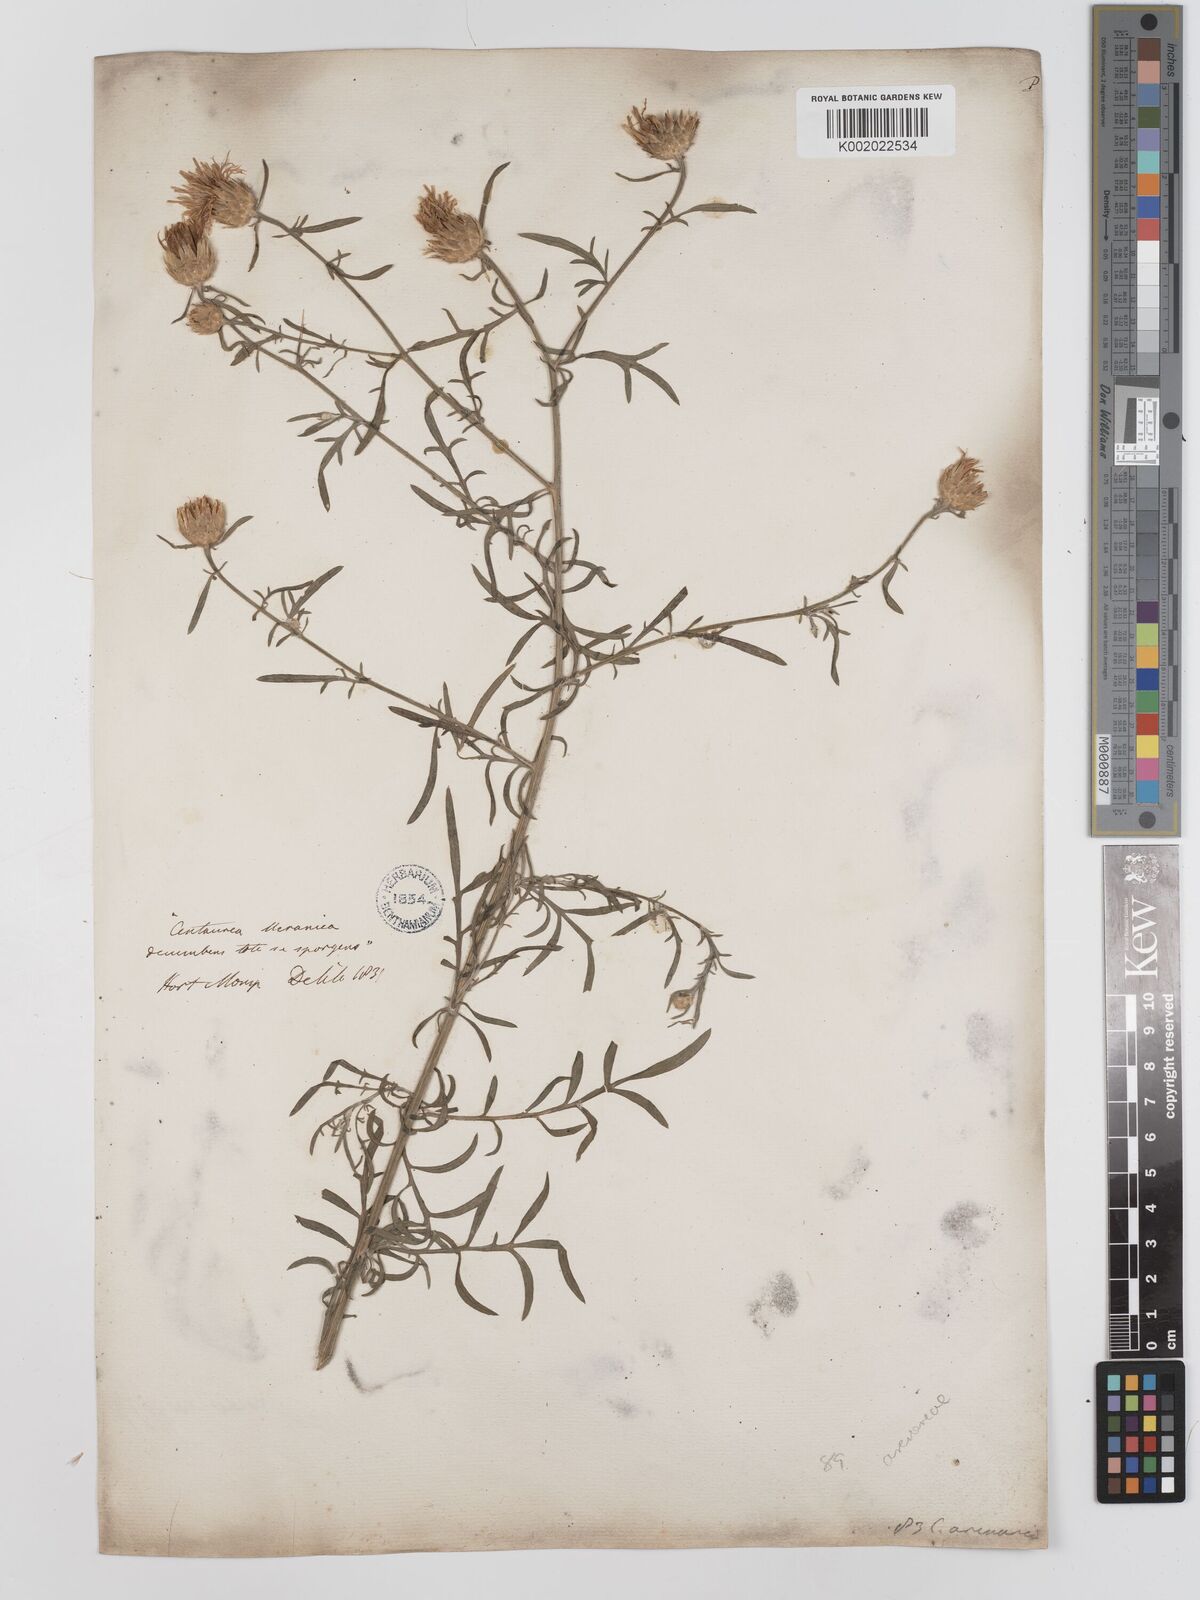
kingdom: Plantae
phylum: Tracheophyta
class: Magnoliopsida
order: Asterales
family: Asteraceae
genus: Centaurea
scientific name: Centaurea
